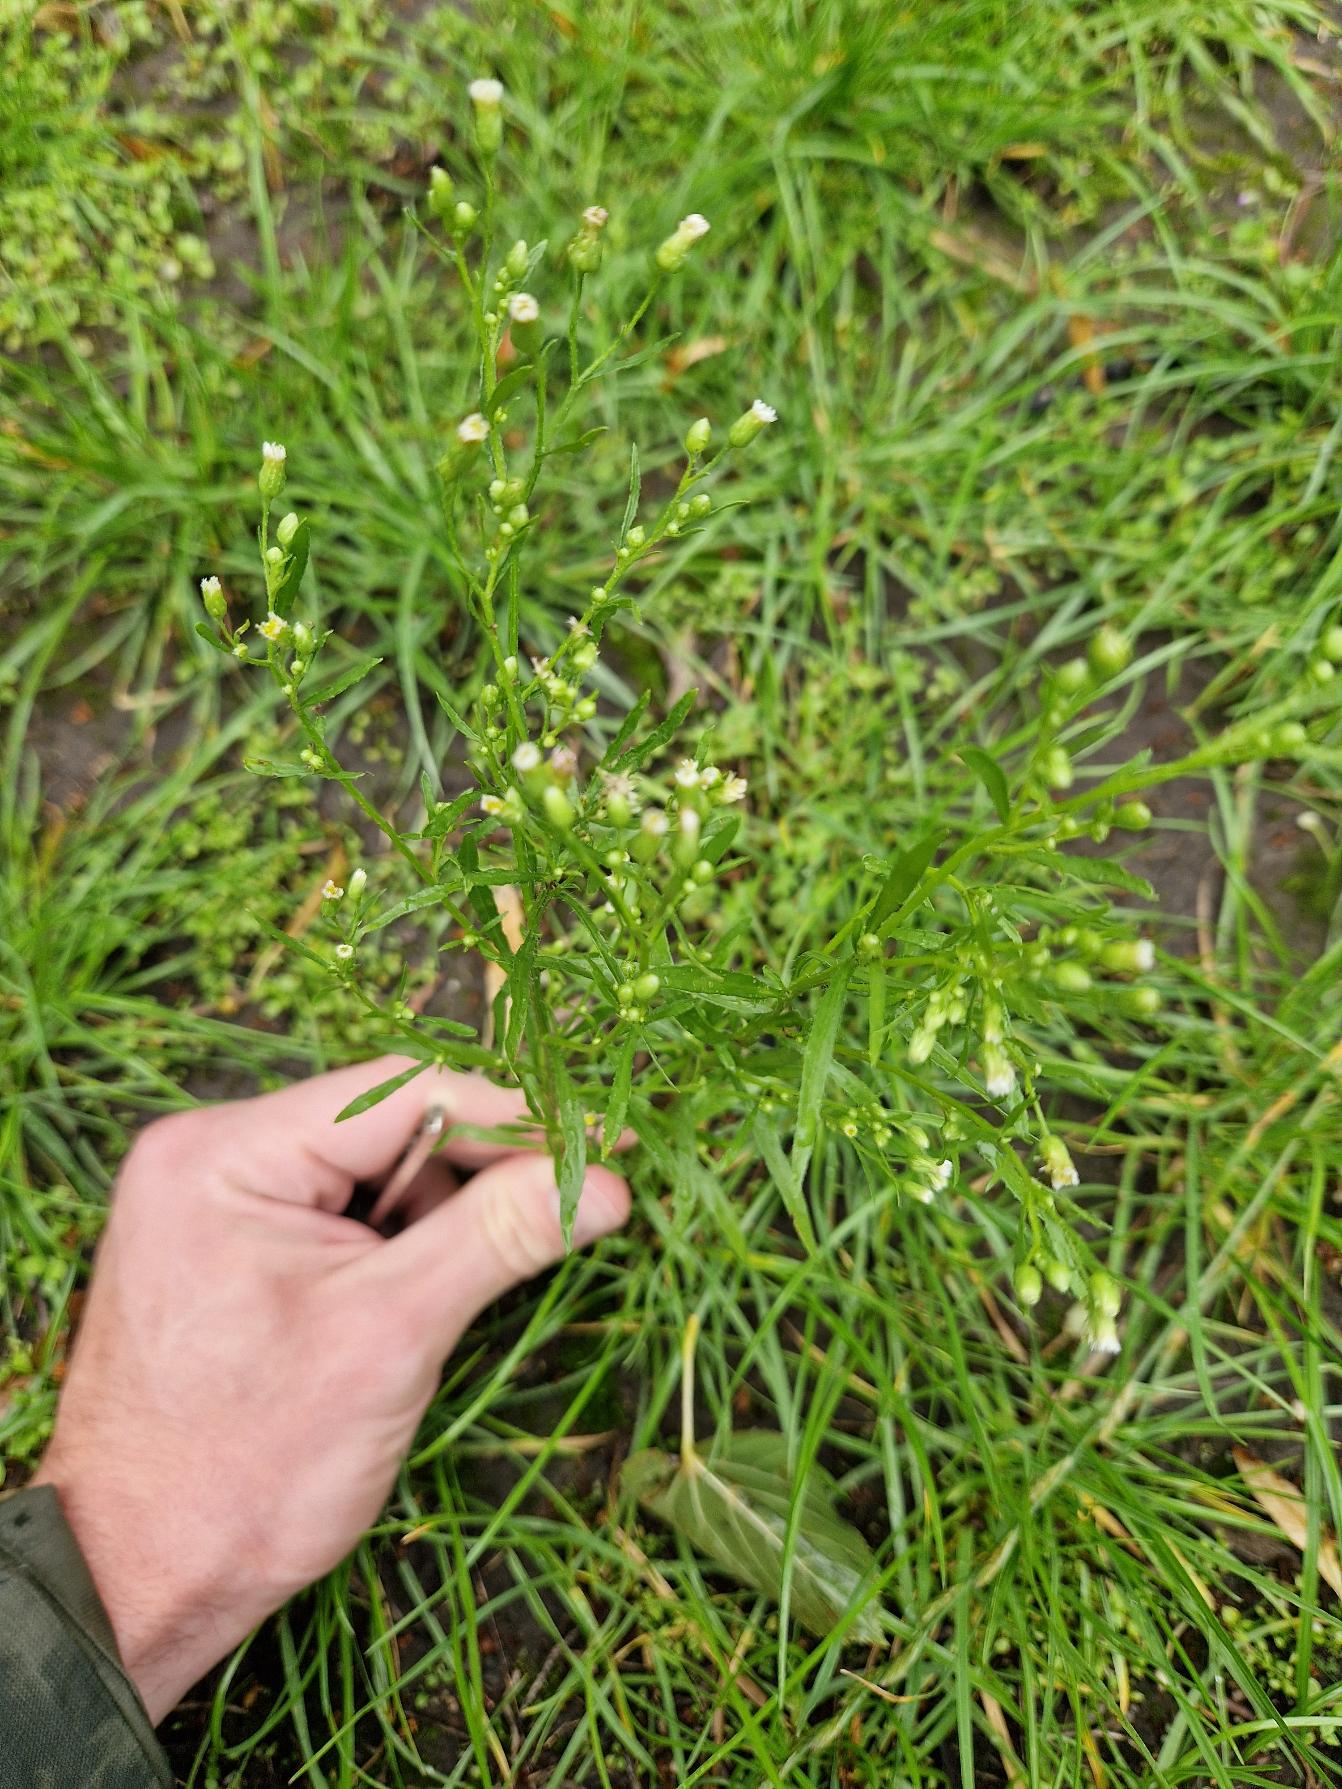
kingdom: Plantae
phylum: Tracheophyta
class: Magnoliopsida
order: Asterales
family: Asteraceae
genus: Erigeron
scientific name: Erigeron canadensis
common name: Kanadisk bakkestjerne
